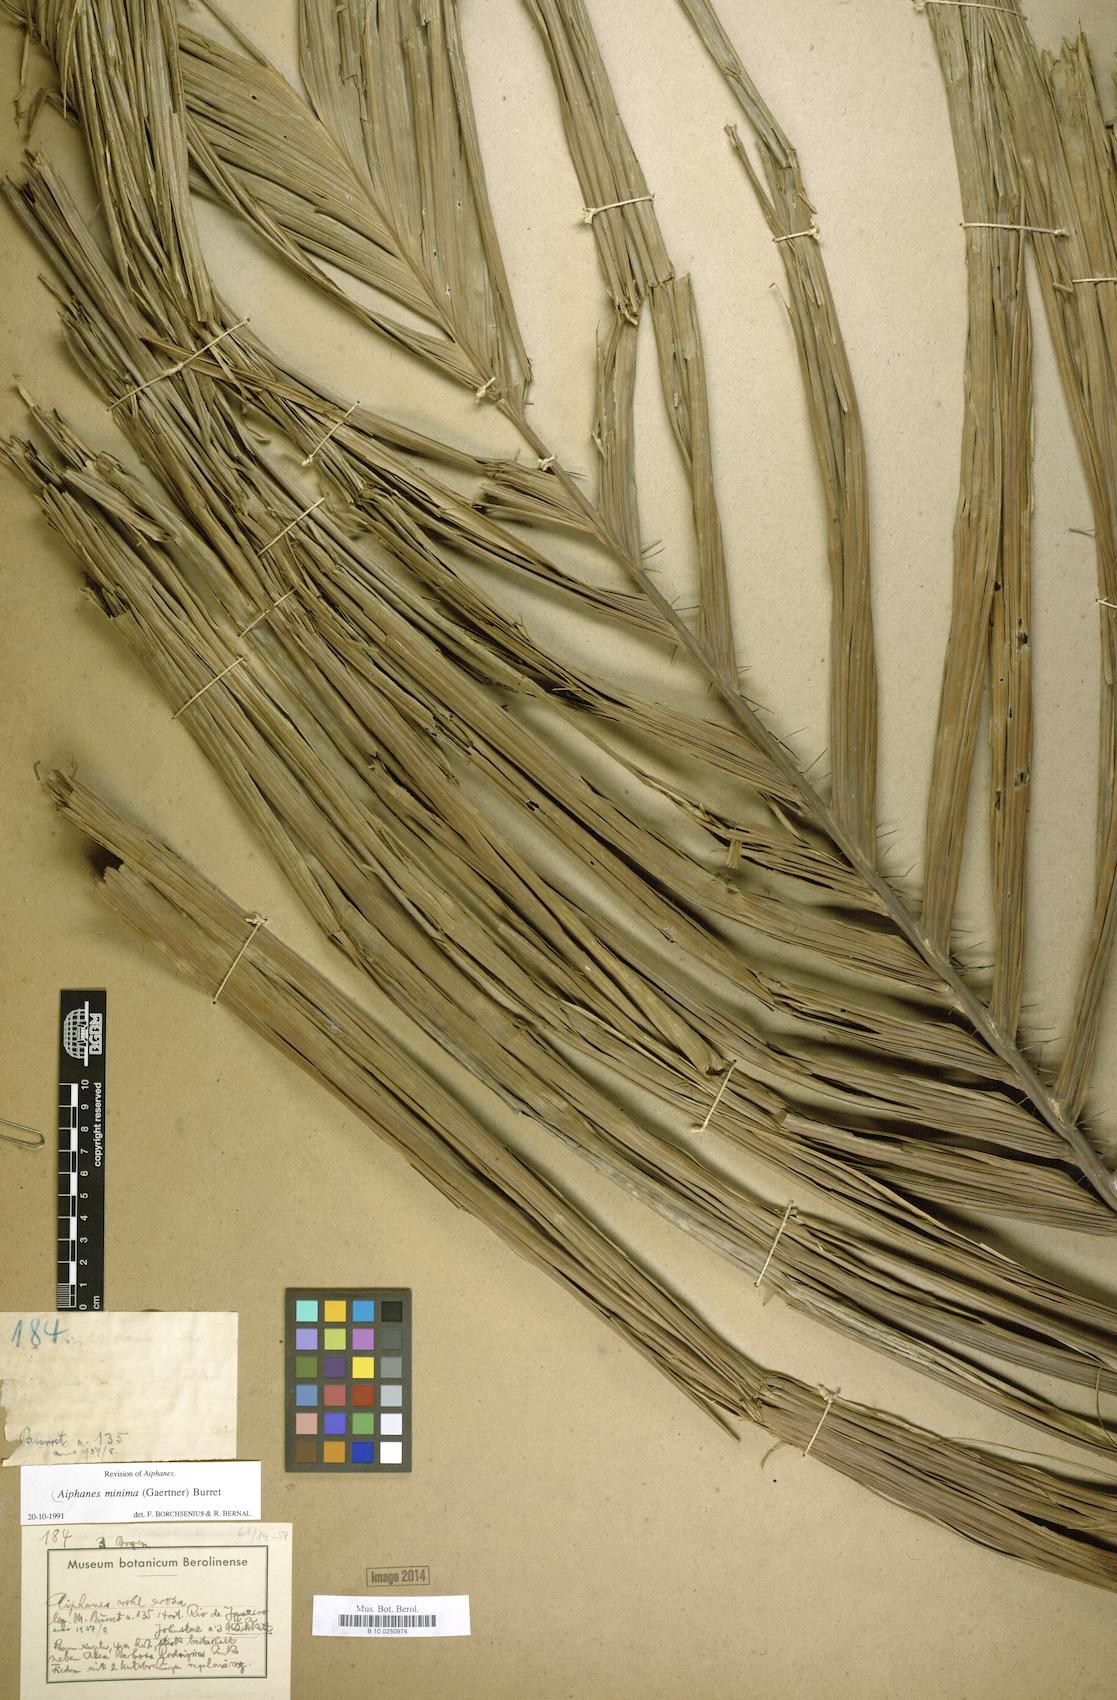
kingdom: Plantae
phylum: Tracheophyta
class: Liliopsida
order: Arecales
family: Arecaceae
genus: Aiphanes
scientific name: Aiphanes minima
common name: Grigri
